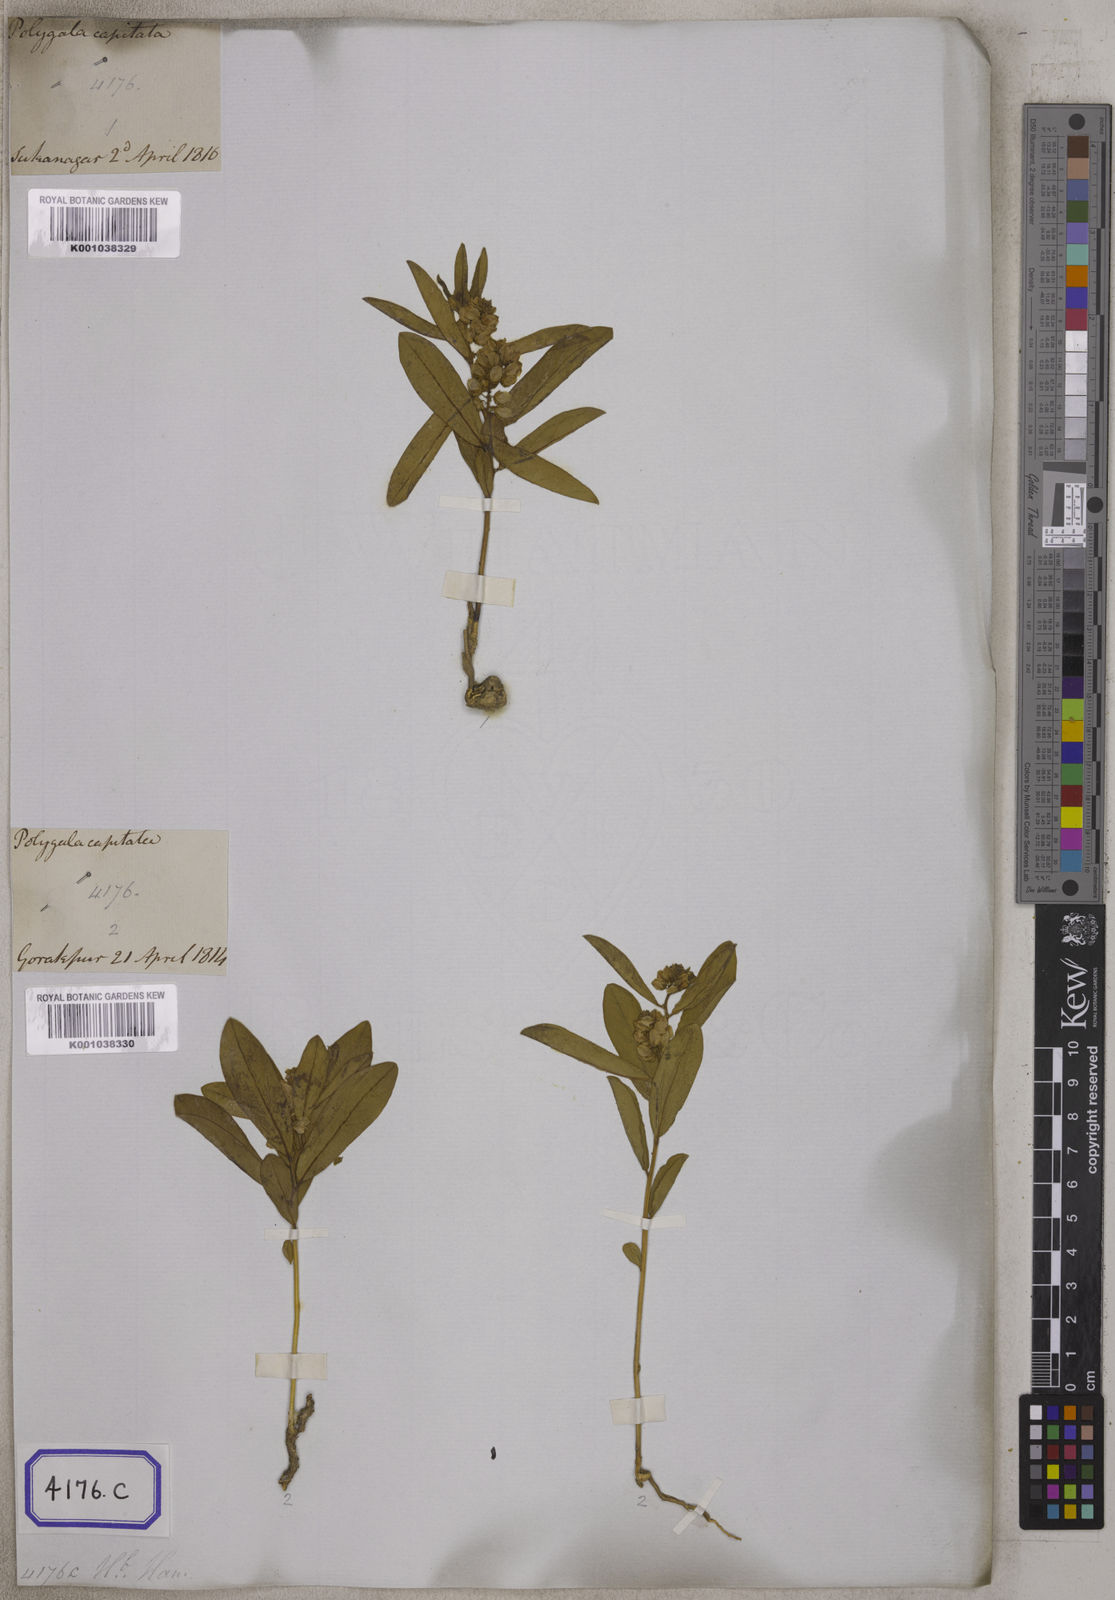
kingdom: Plantae
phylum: Tracheophyta
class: Magnoliopsida
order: Fabales
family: Polygalaceae
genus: Polygala
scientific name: Polygala crotalarioides
